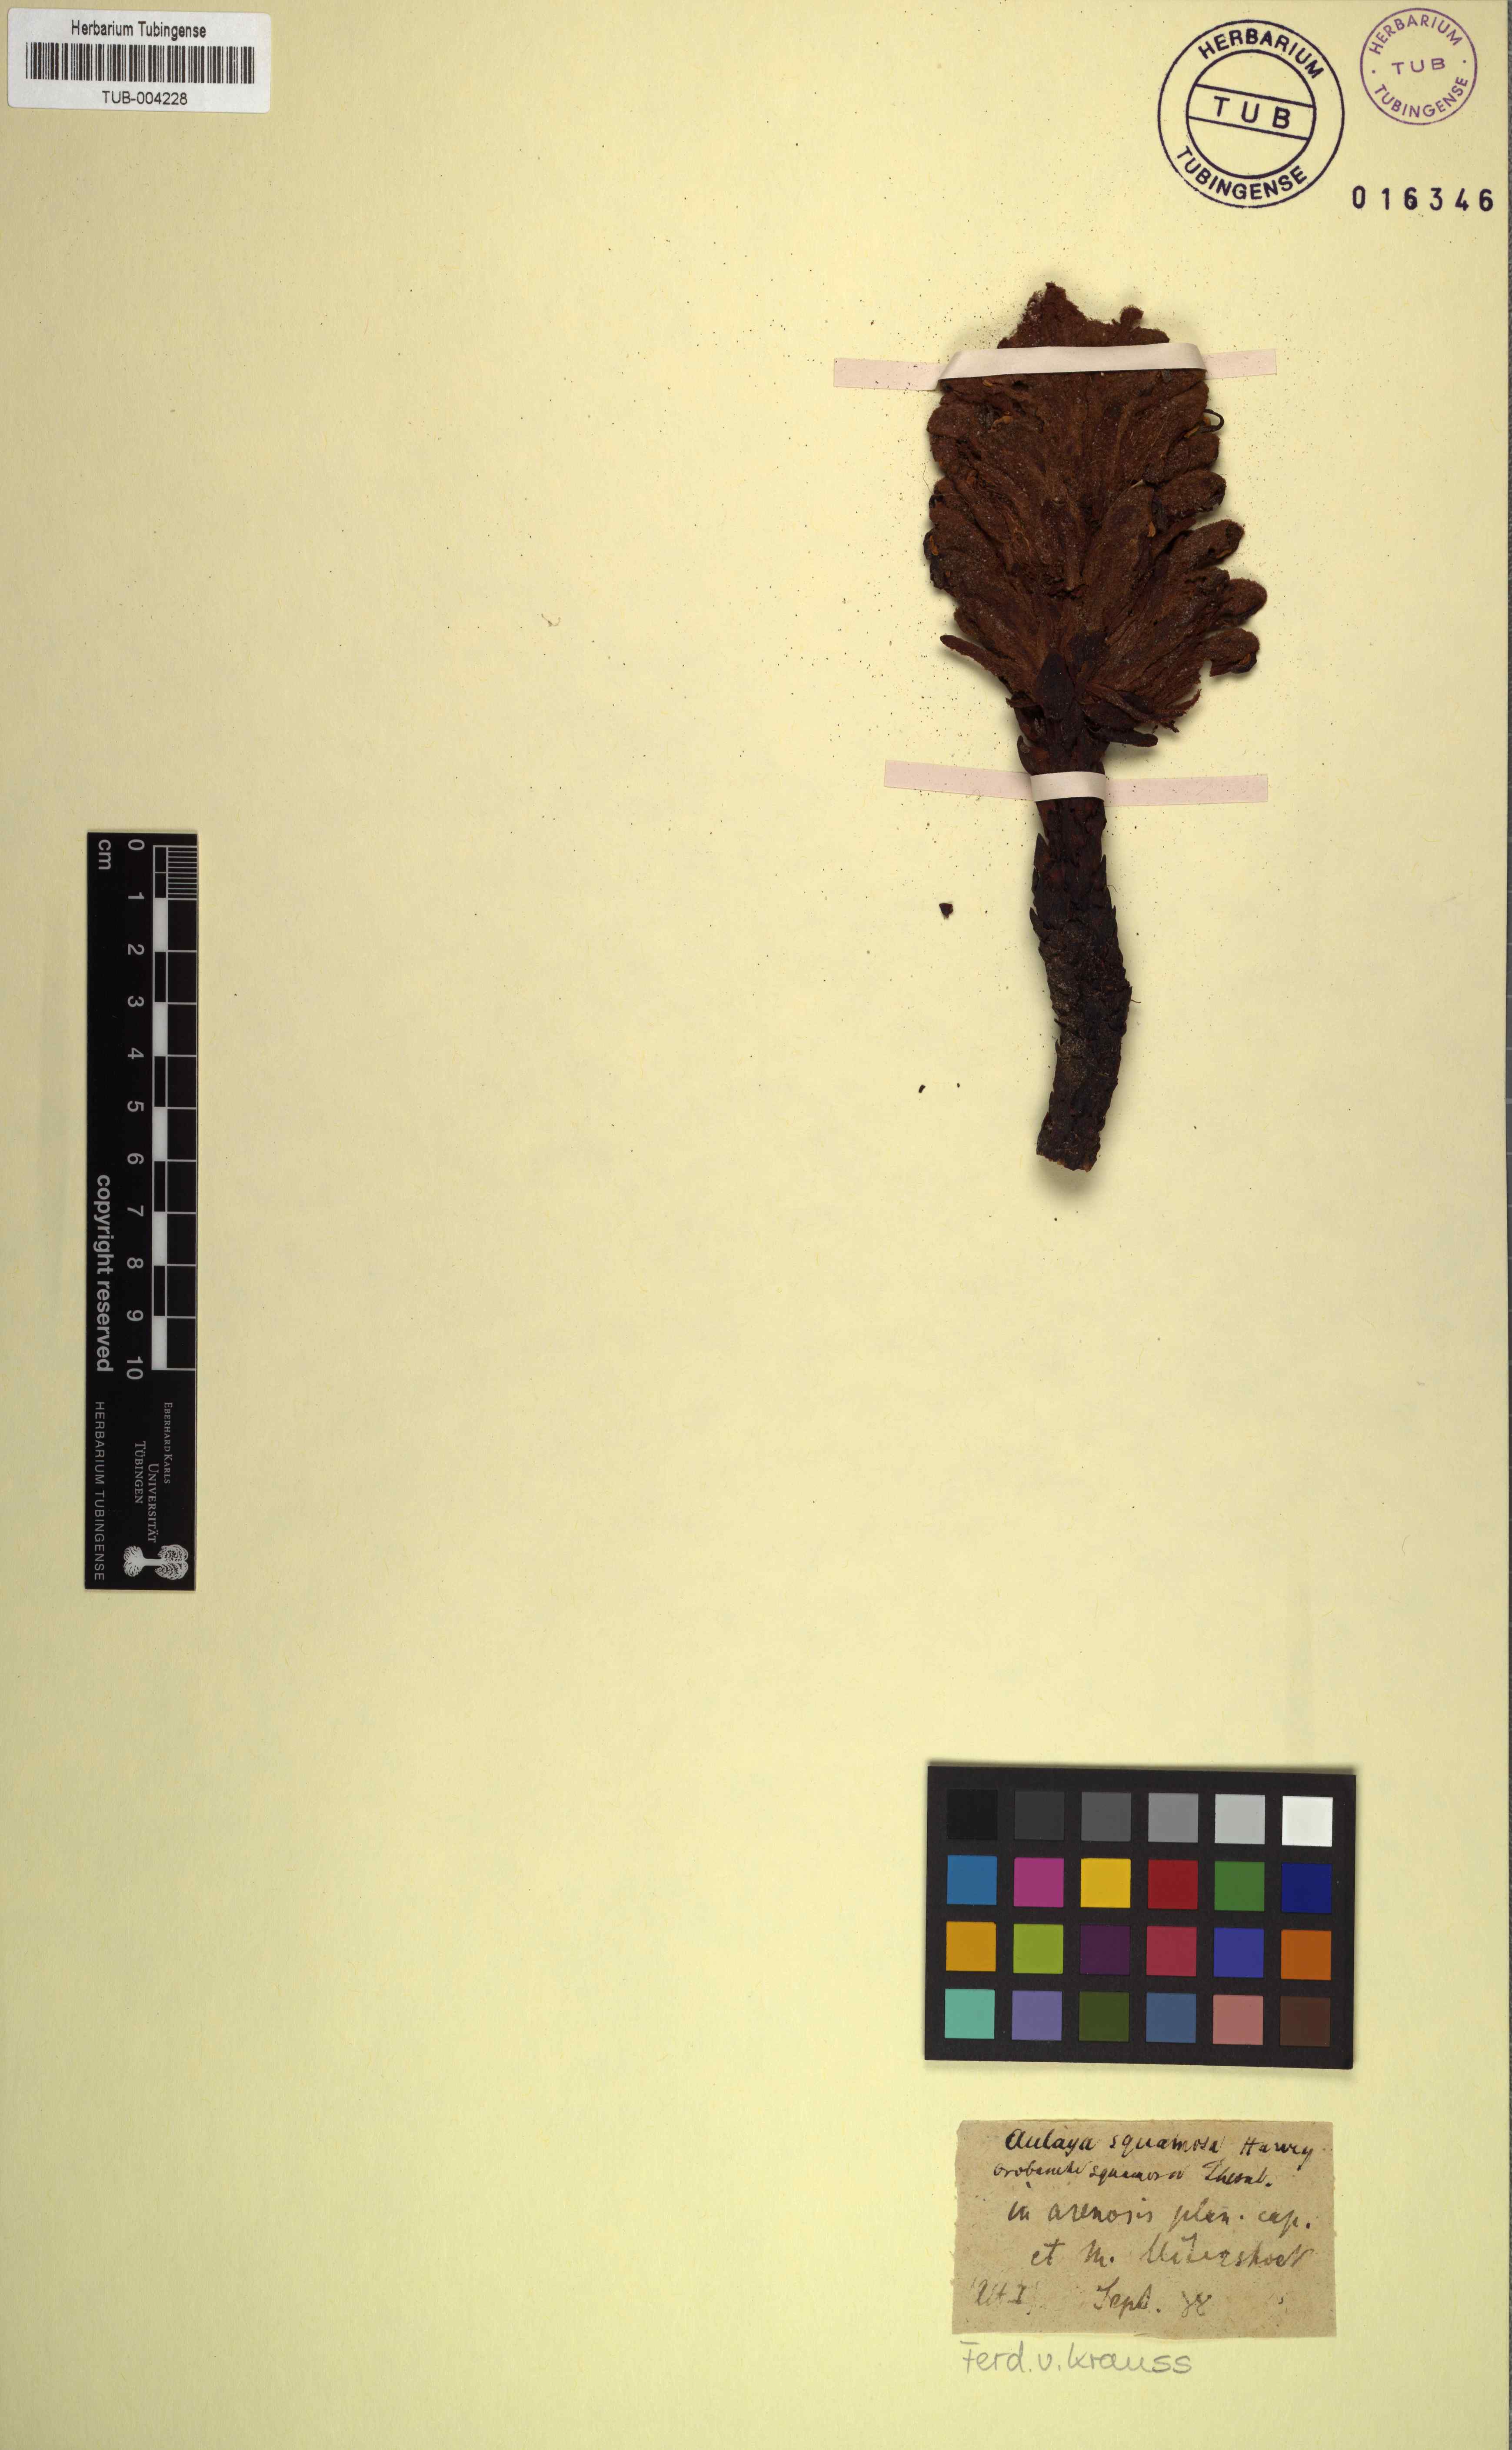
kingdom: Plantae
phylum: Tracheophyta
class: Magnoliopsida
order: Lamiales
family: Orobanchaceae
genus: Harveya
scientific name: Harveya squamosa
